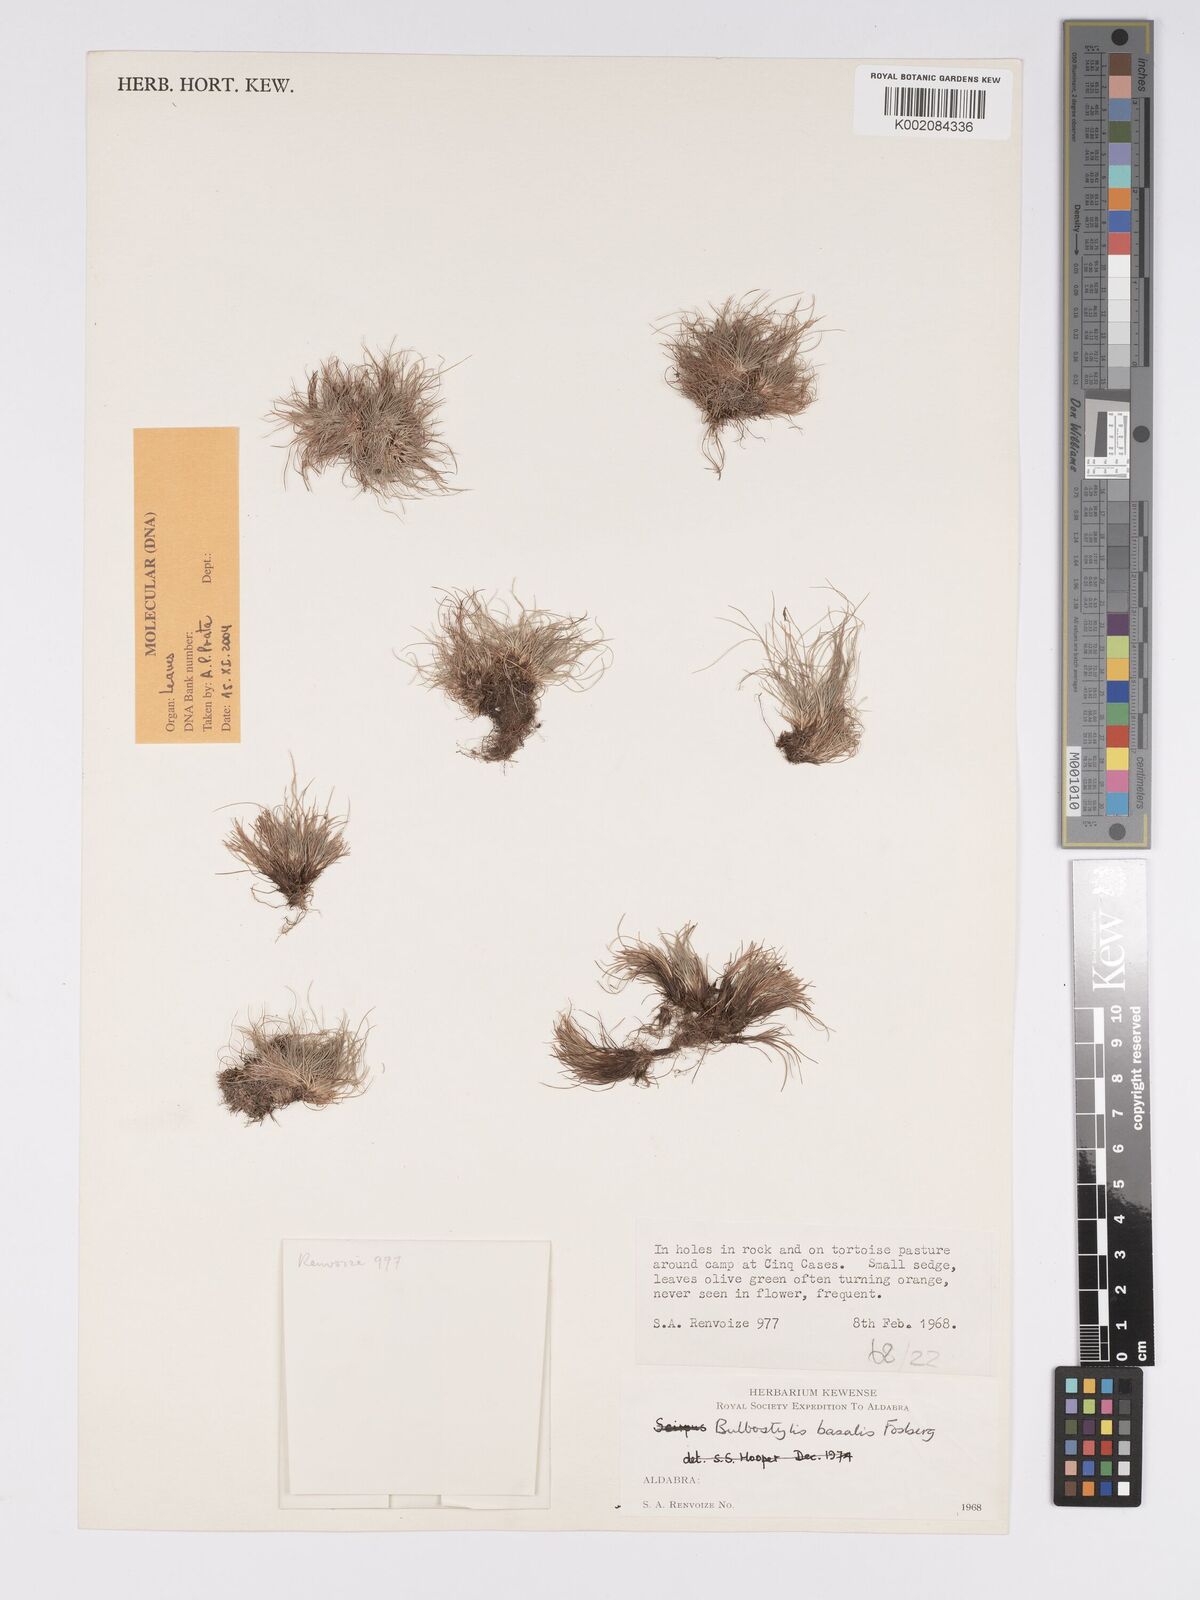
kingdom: Plantae
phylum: Tracheophyta
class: Liliopsida
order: Poales
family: Cyperaceae
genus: Bulbostylis
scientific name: Bulbostylis basalis
